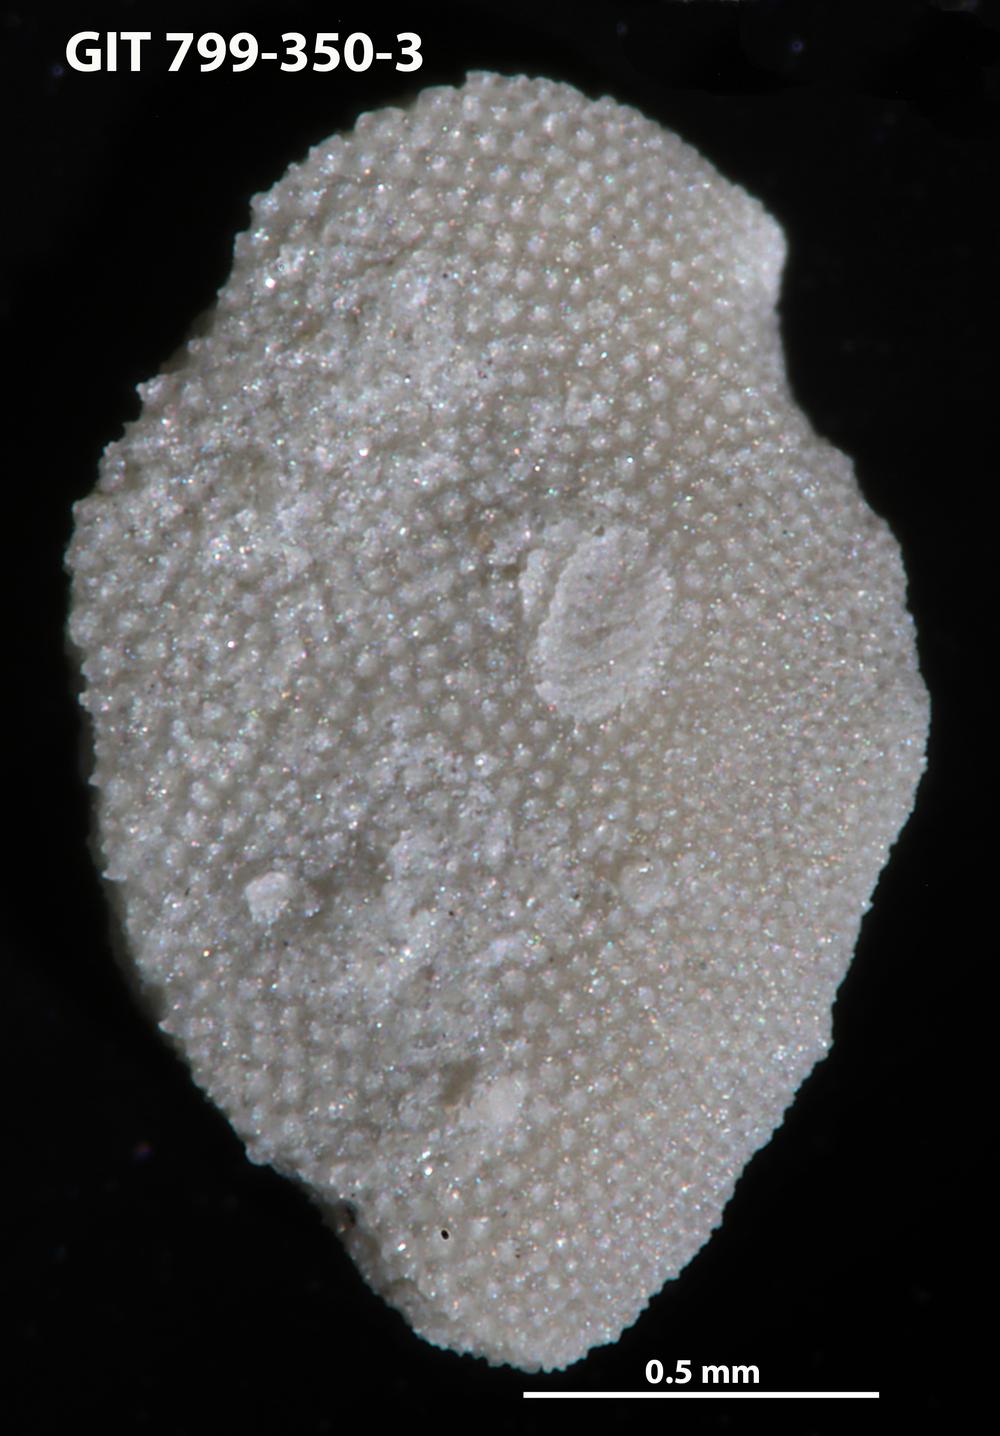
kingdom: Animalia
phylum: Echinodermata
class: Echinoidea
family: Lepidocentridae
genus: Aptilechinus
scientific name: Aptilechinus
